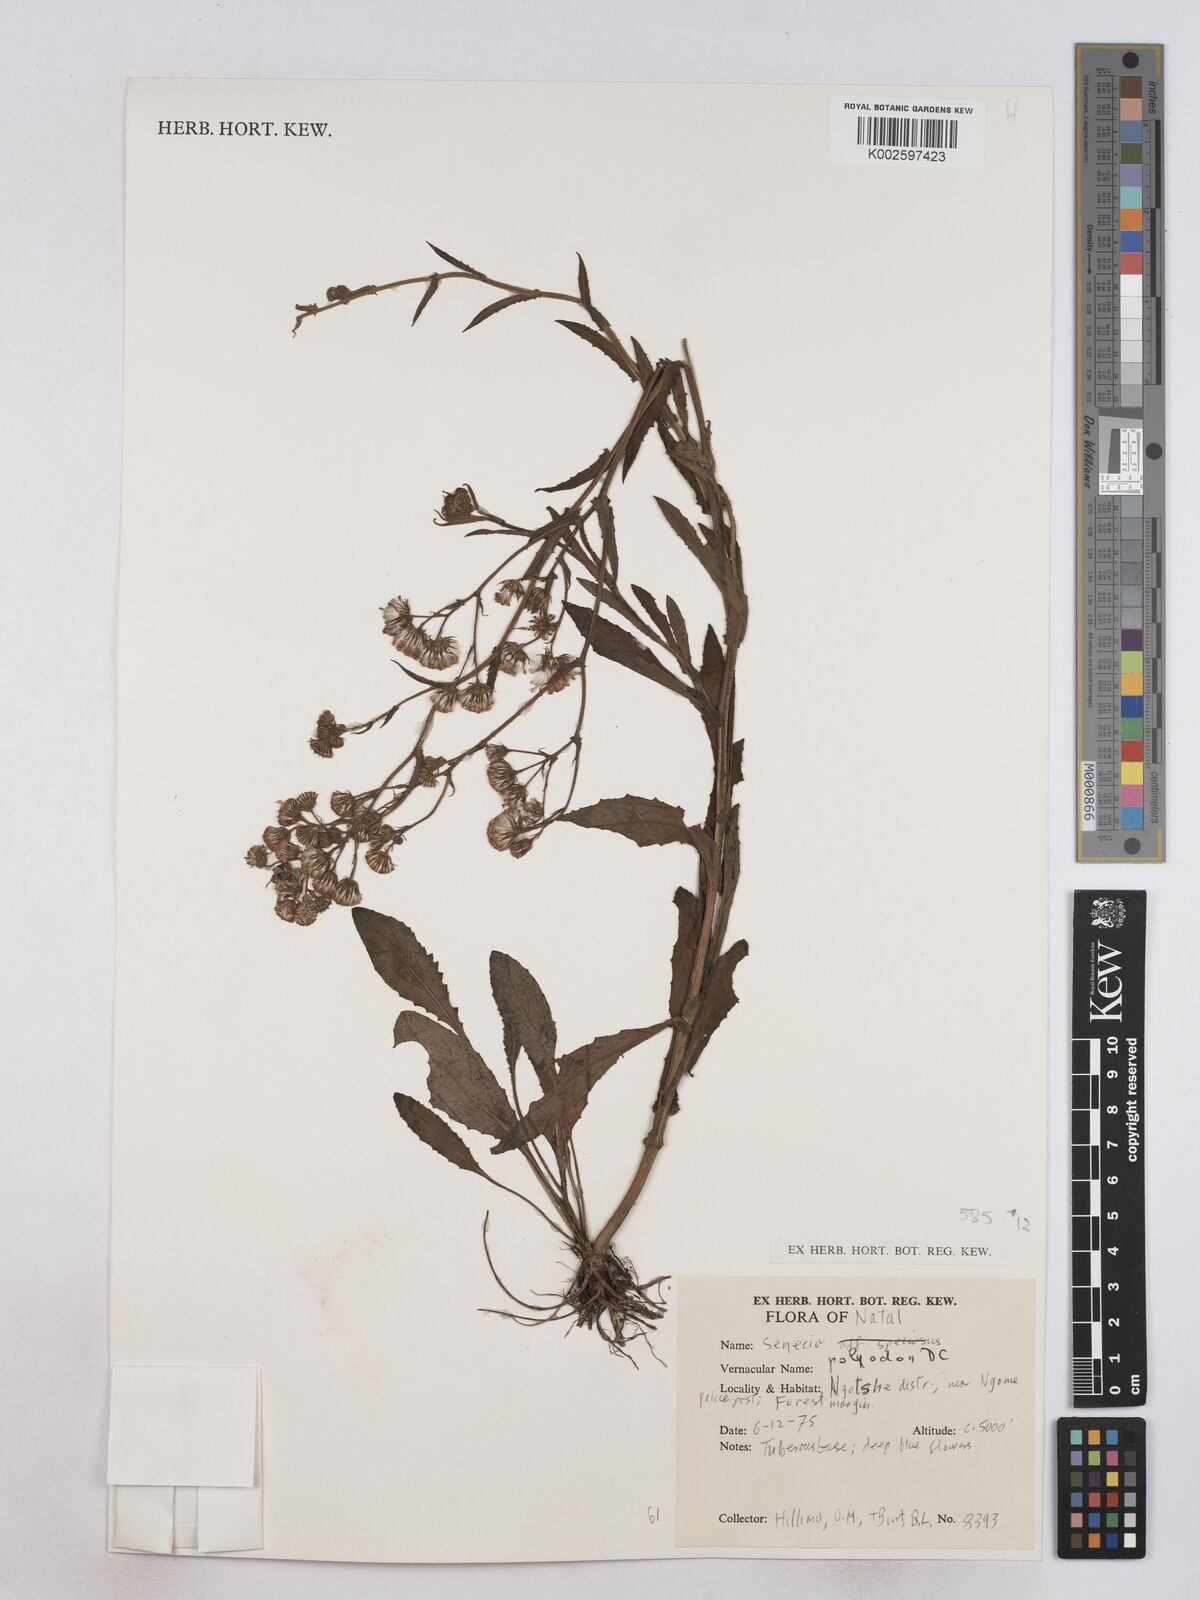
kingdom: Plantae
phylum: Tracheophyta
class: Magnoliopsida
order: Asterales
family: Asteraceae
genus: Senecio
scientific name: Senecio polyodon
